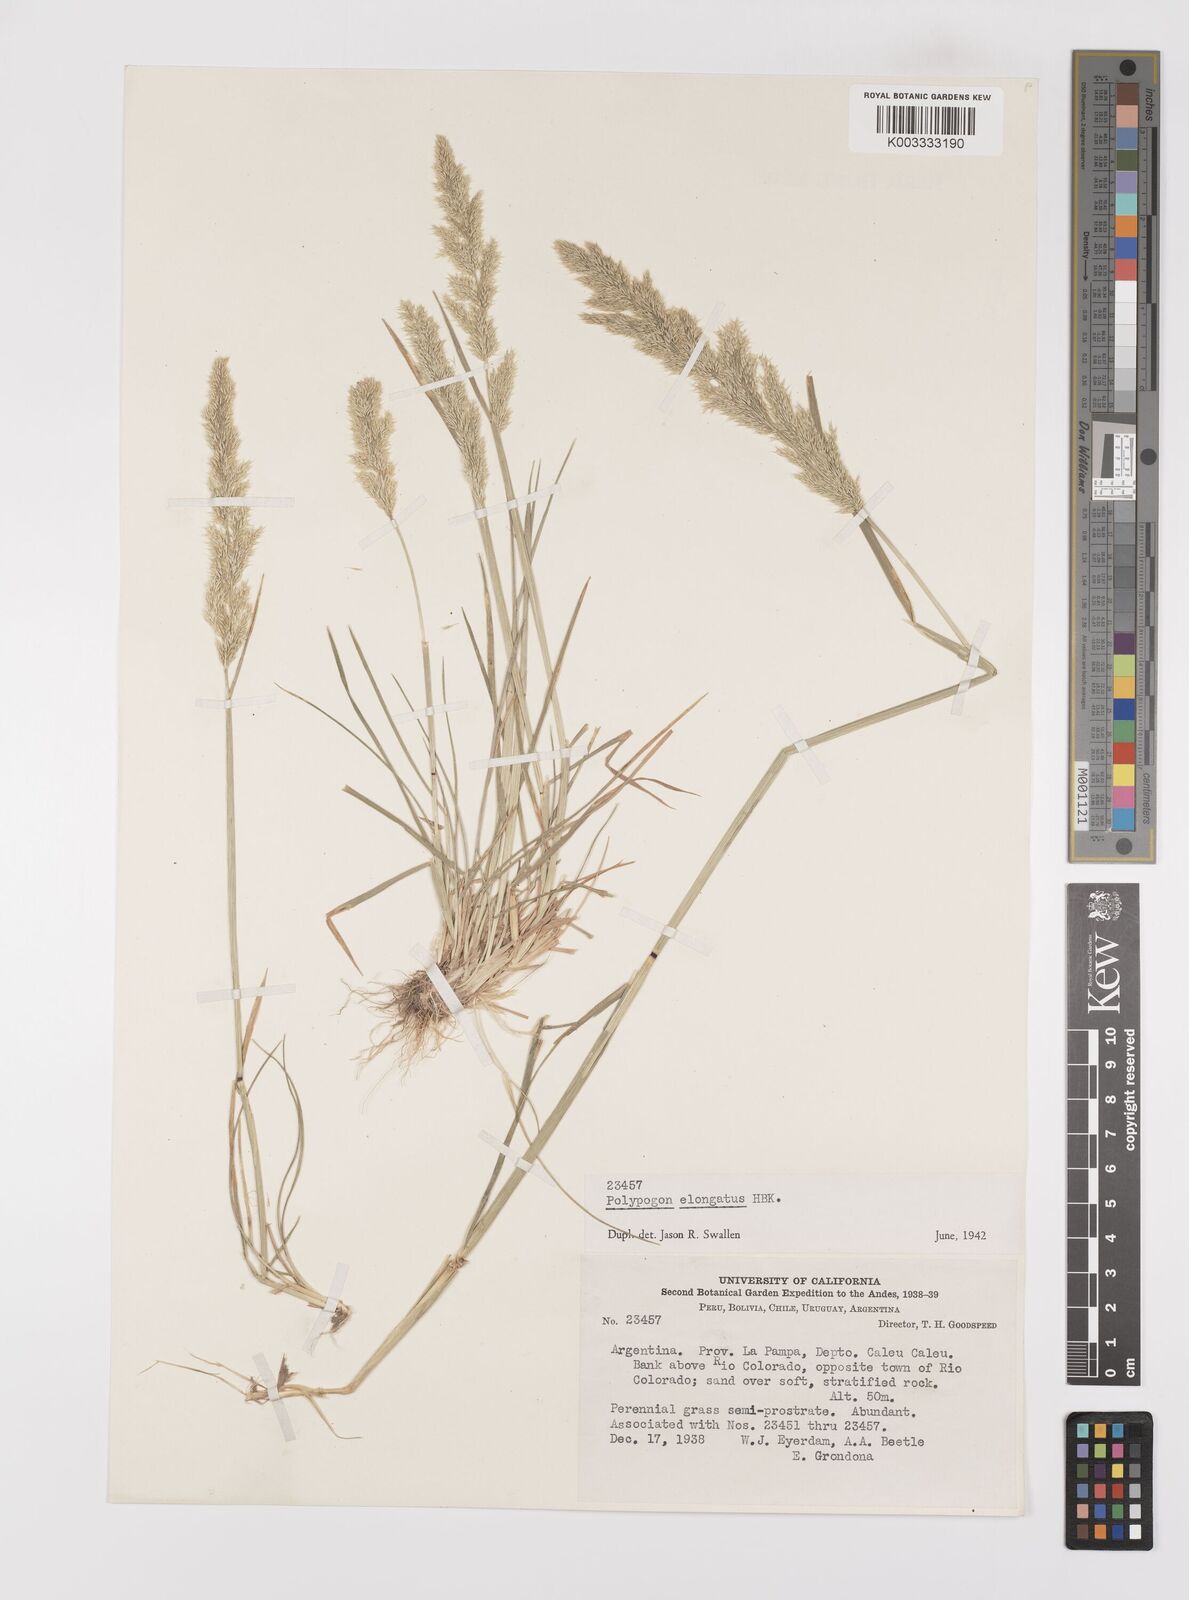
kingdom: Plantae
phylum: Tracheophyta
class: Liliopsida
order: Poales
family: Poaceae
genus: Polypogon
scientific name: Polypogon elongatus
